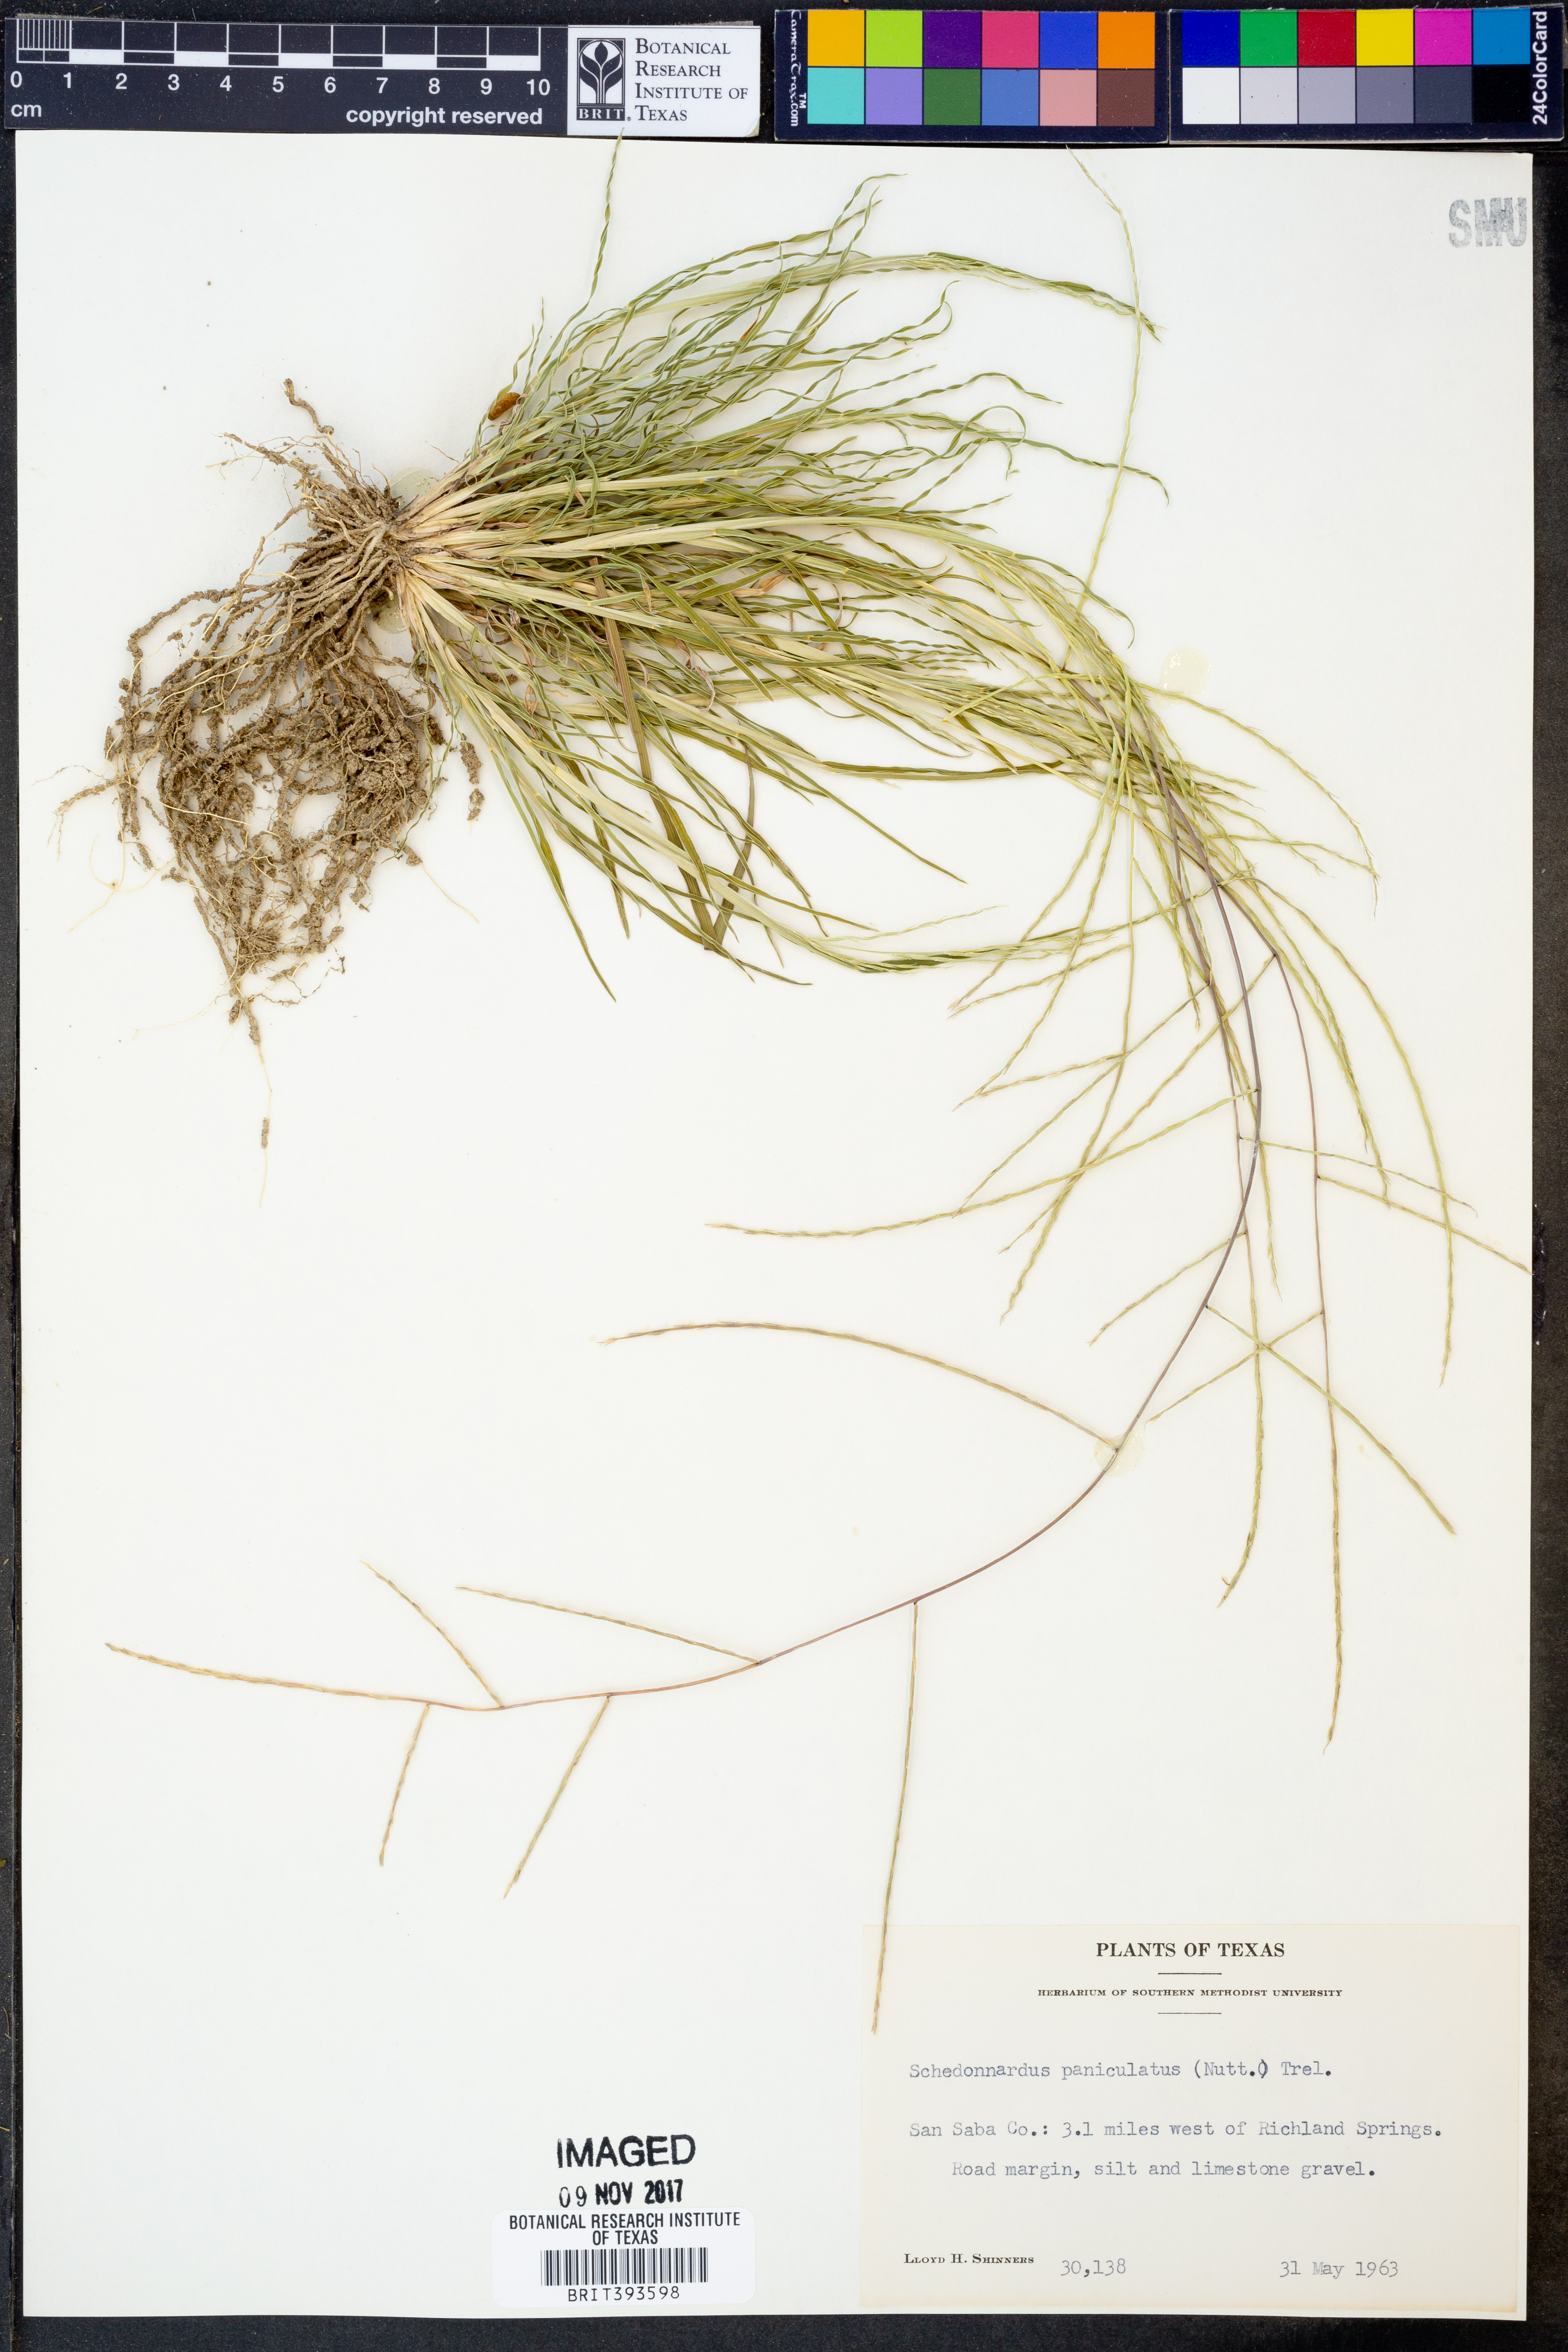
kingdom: Plantae
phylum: Tracheophyta
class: Liliopsida
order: Poales
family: Poaceae
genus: Muhlenbergia
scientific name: Muhlenbergia paniculata
